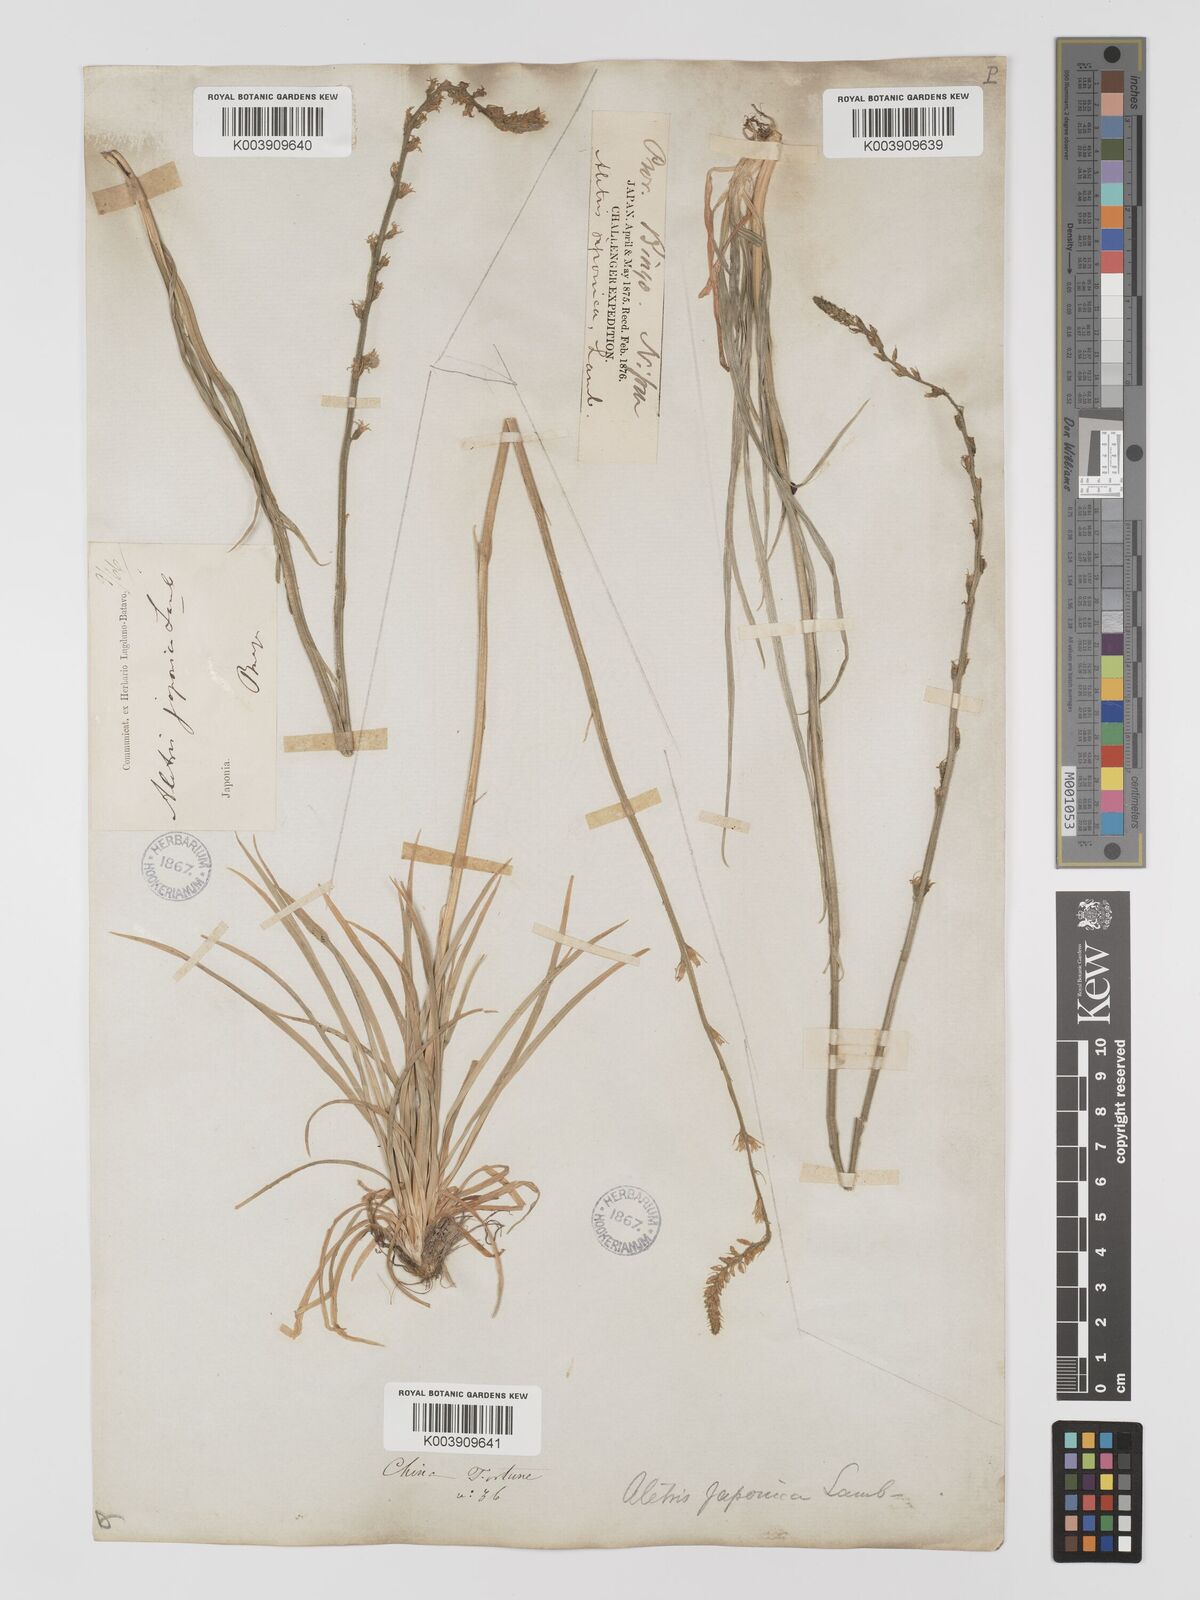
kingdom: Plantae
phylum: Tracheophyta
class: Liliopsida
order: Dioscoreales
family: Nartheciaceae
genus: Aletris
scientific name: Aletris spicata
